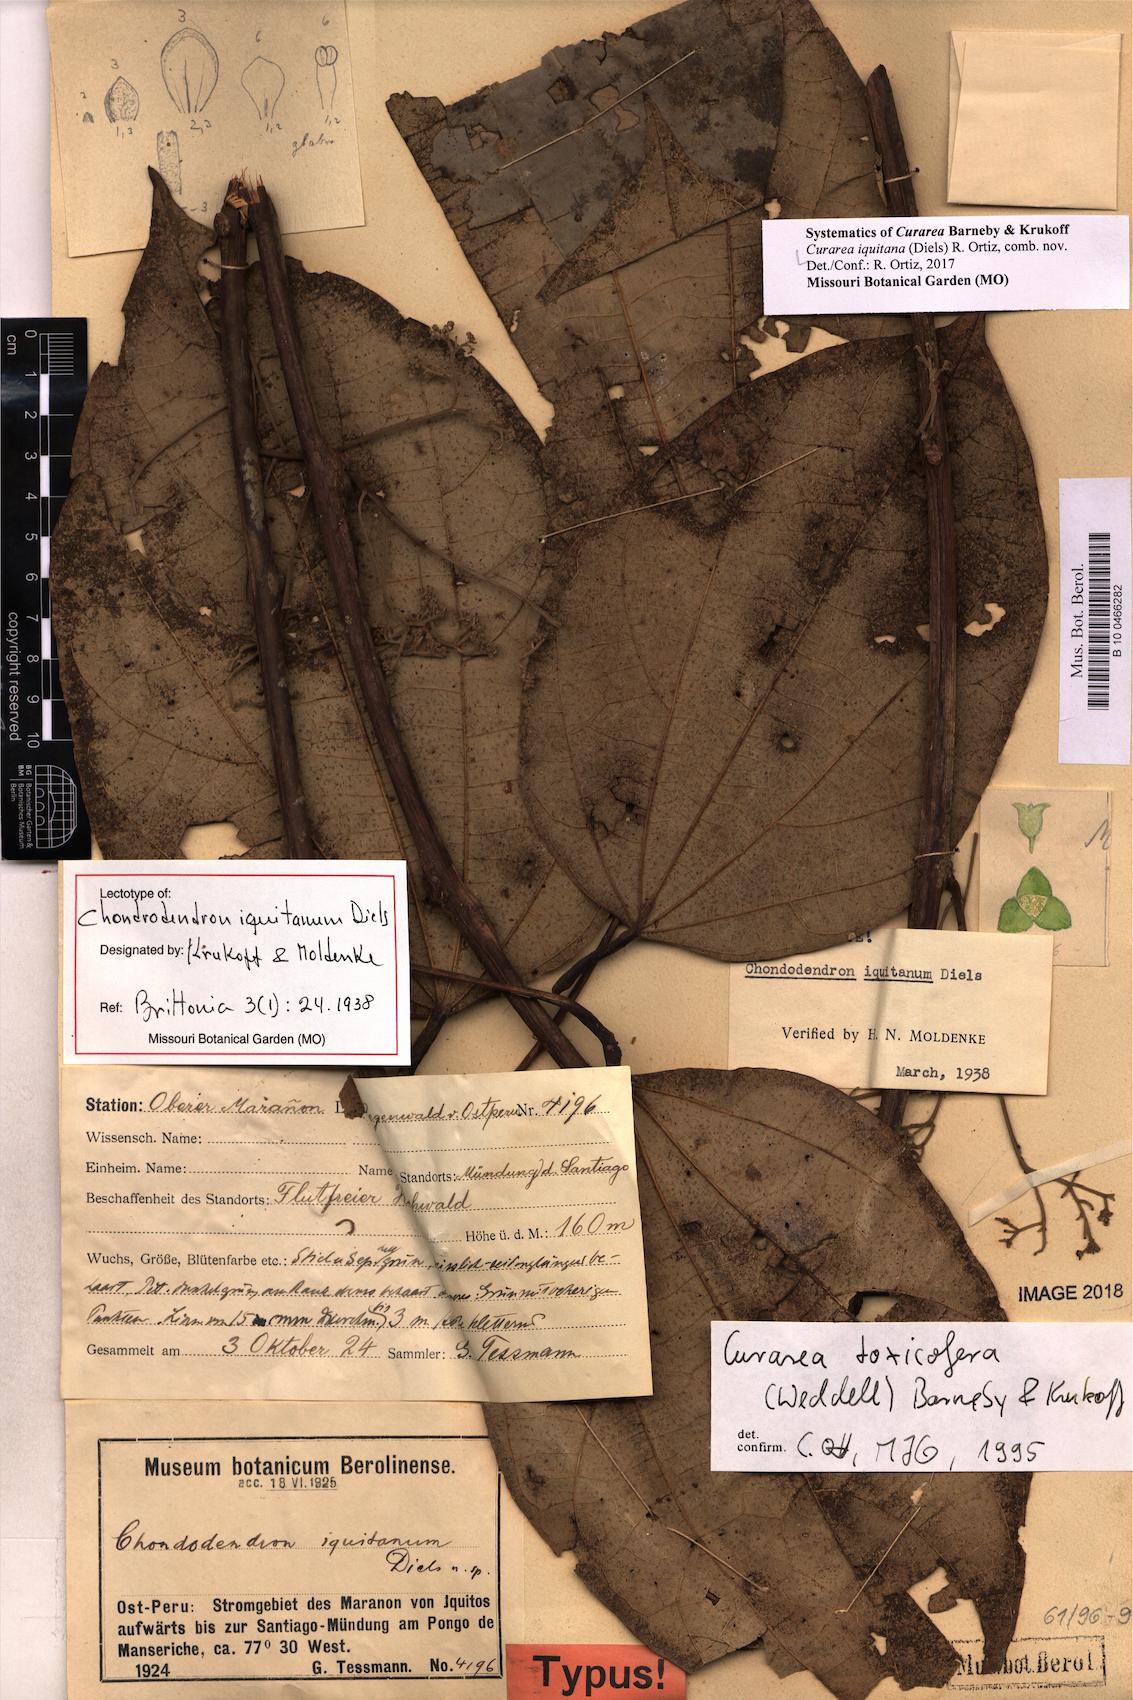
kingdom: Plantae
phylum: Tracheophyta
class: Magnoliopsida
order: Ranunculales
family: Menispermaceae
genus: Curarea
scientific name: Curarea iquitana
